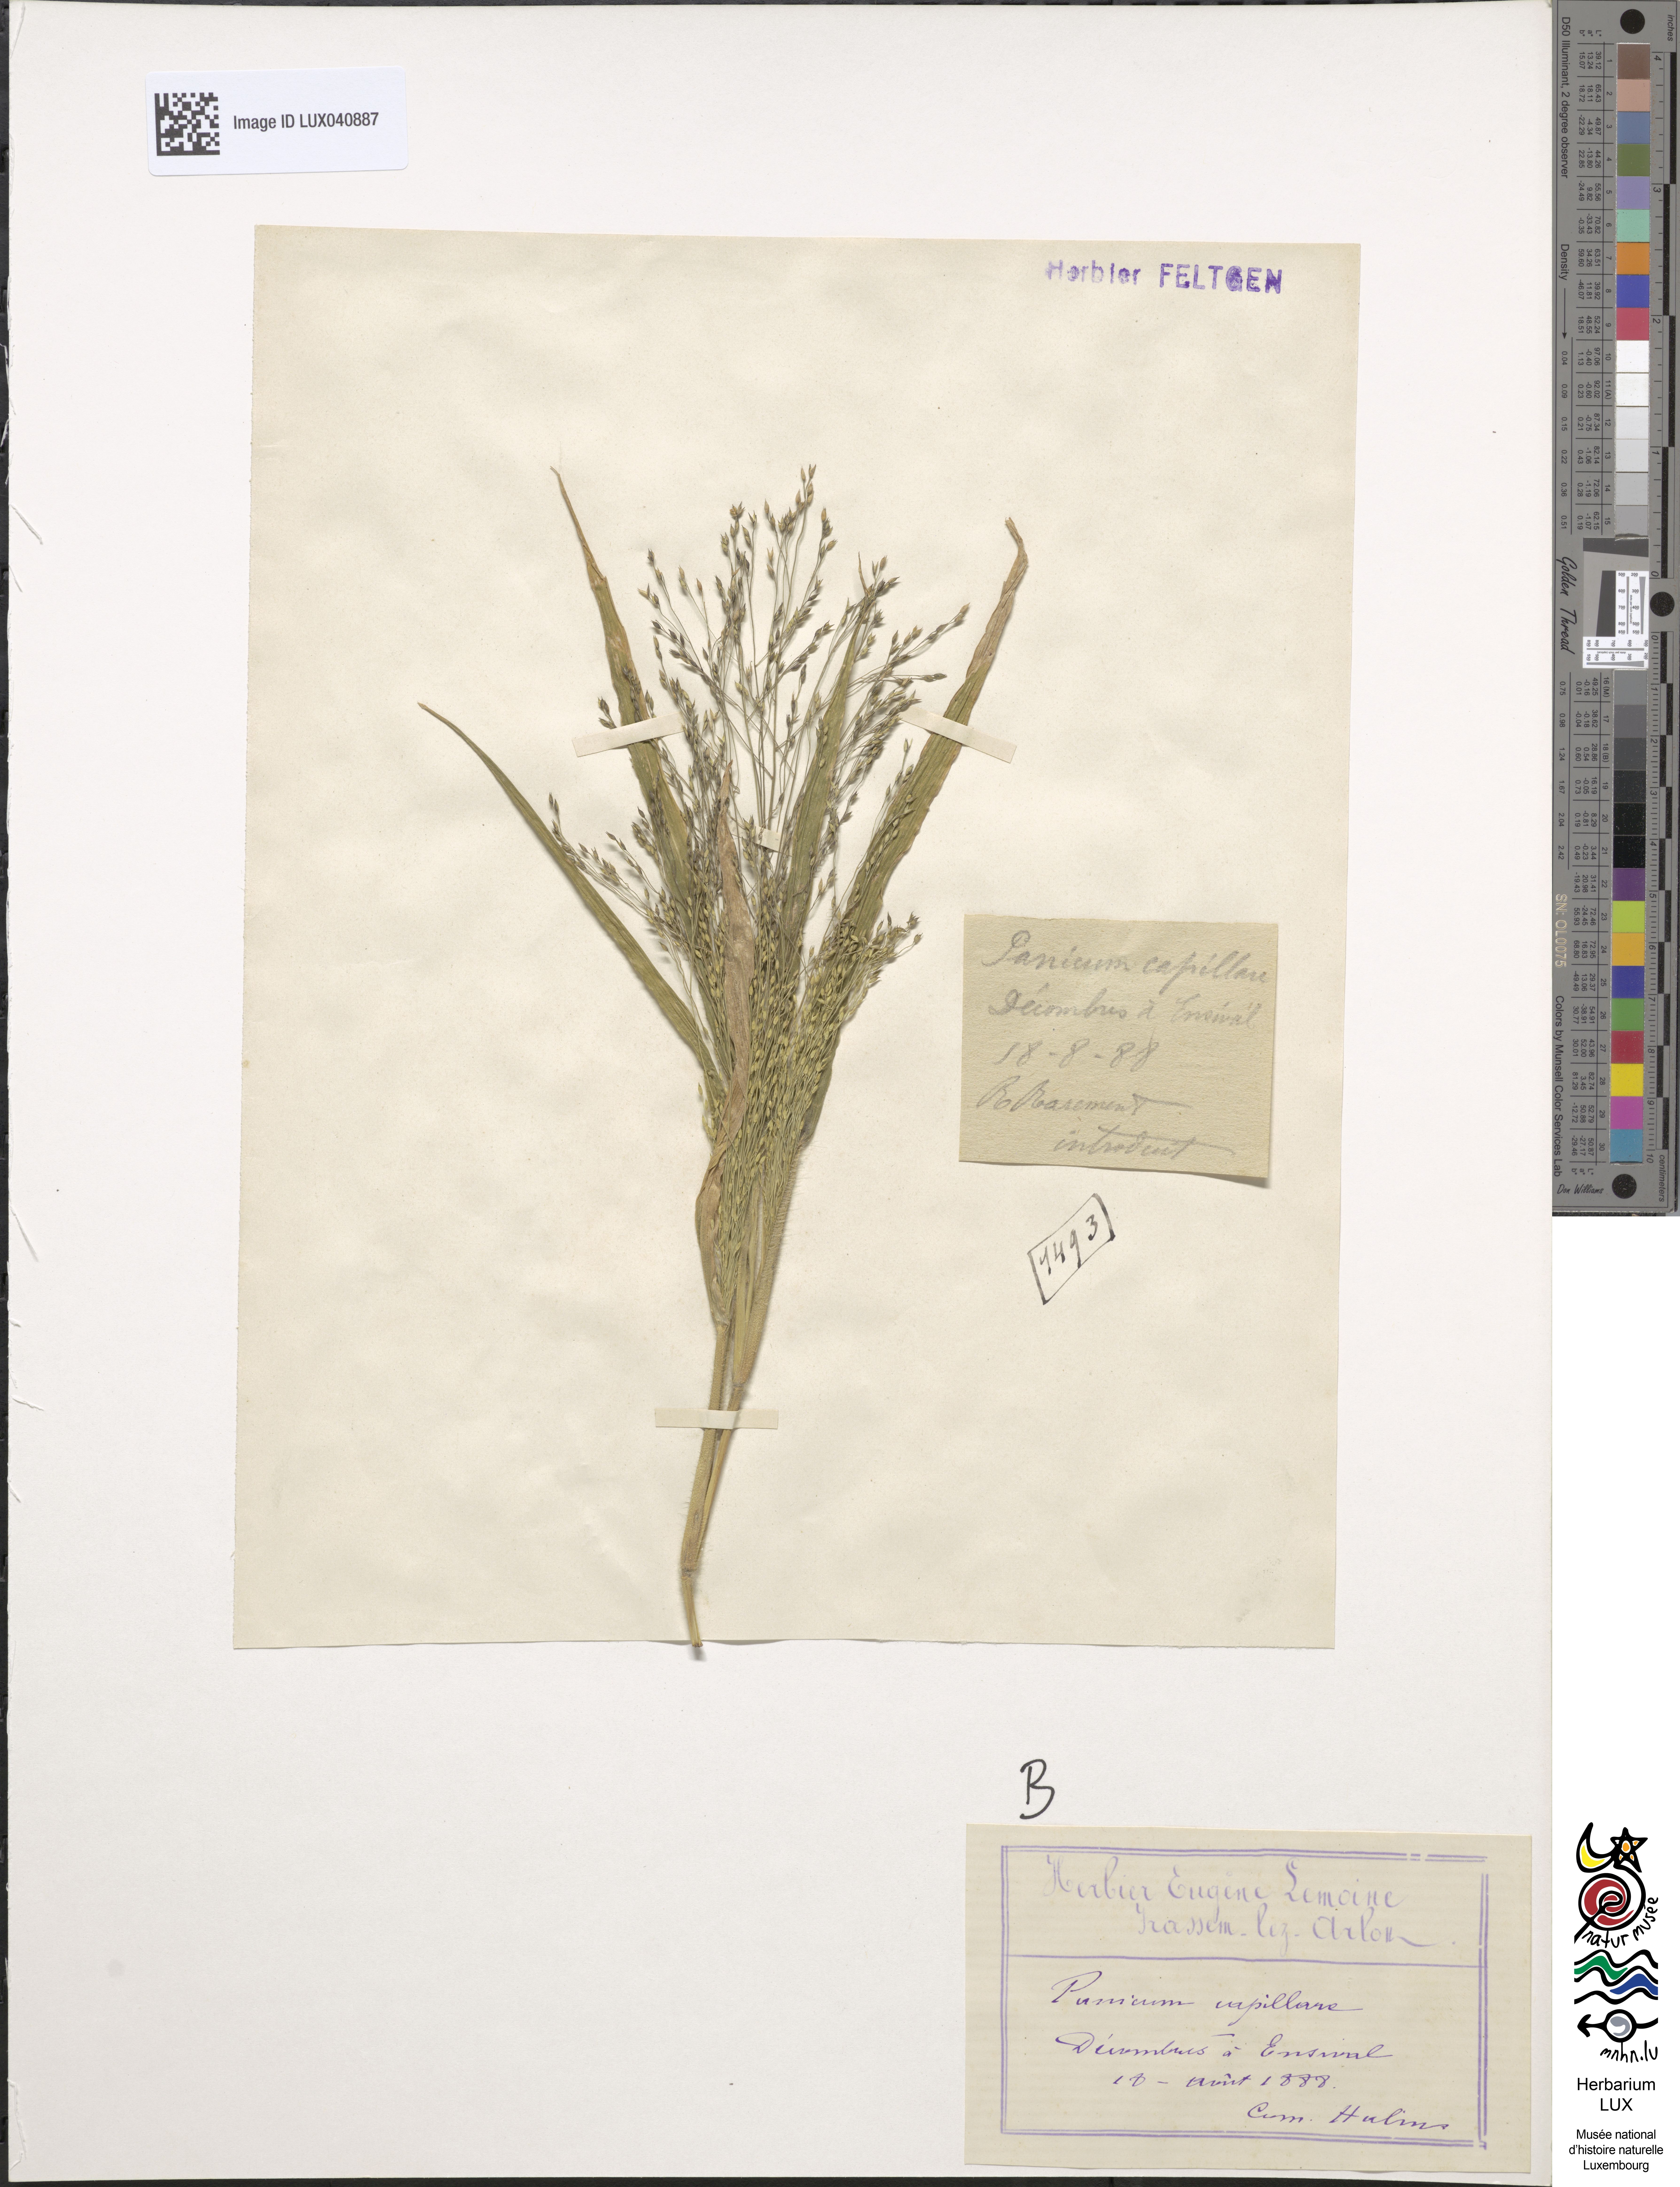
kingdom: Plantae
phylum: Tracheophyta
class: Liliopsida
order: Poales
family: Poaceae
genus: Panicum
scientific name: Panicum capillare
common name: Witch-grass
